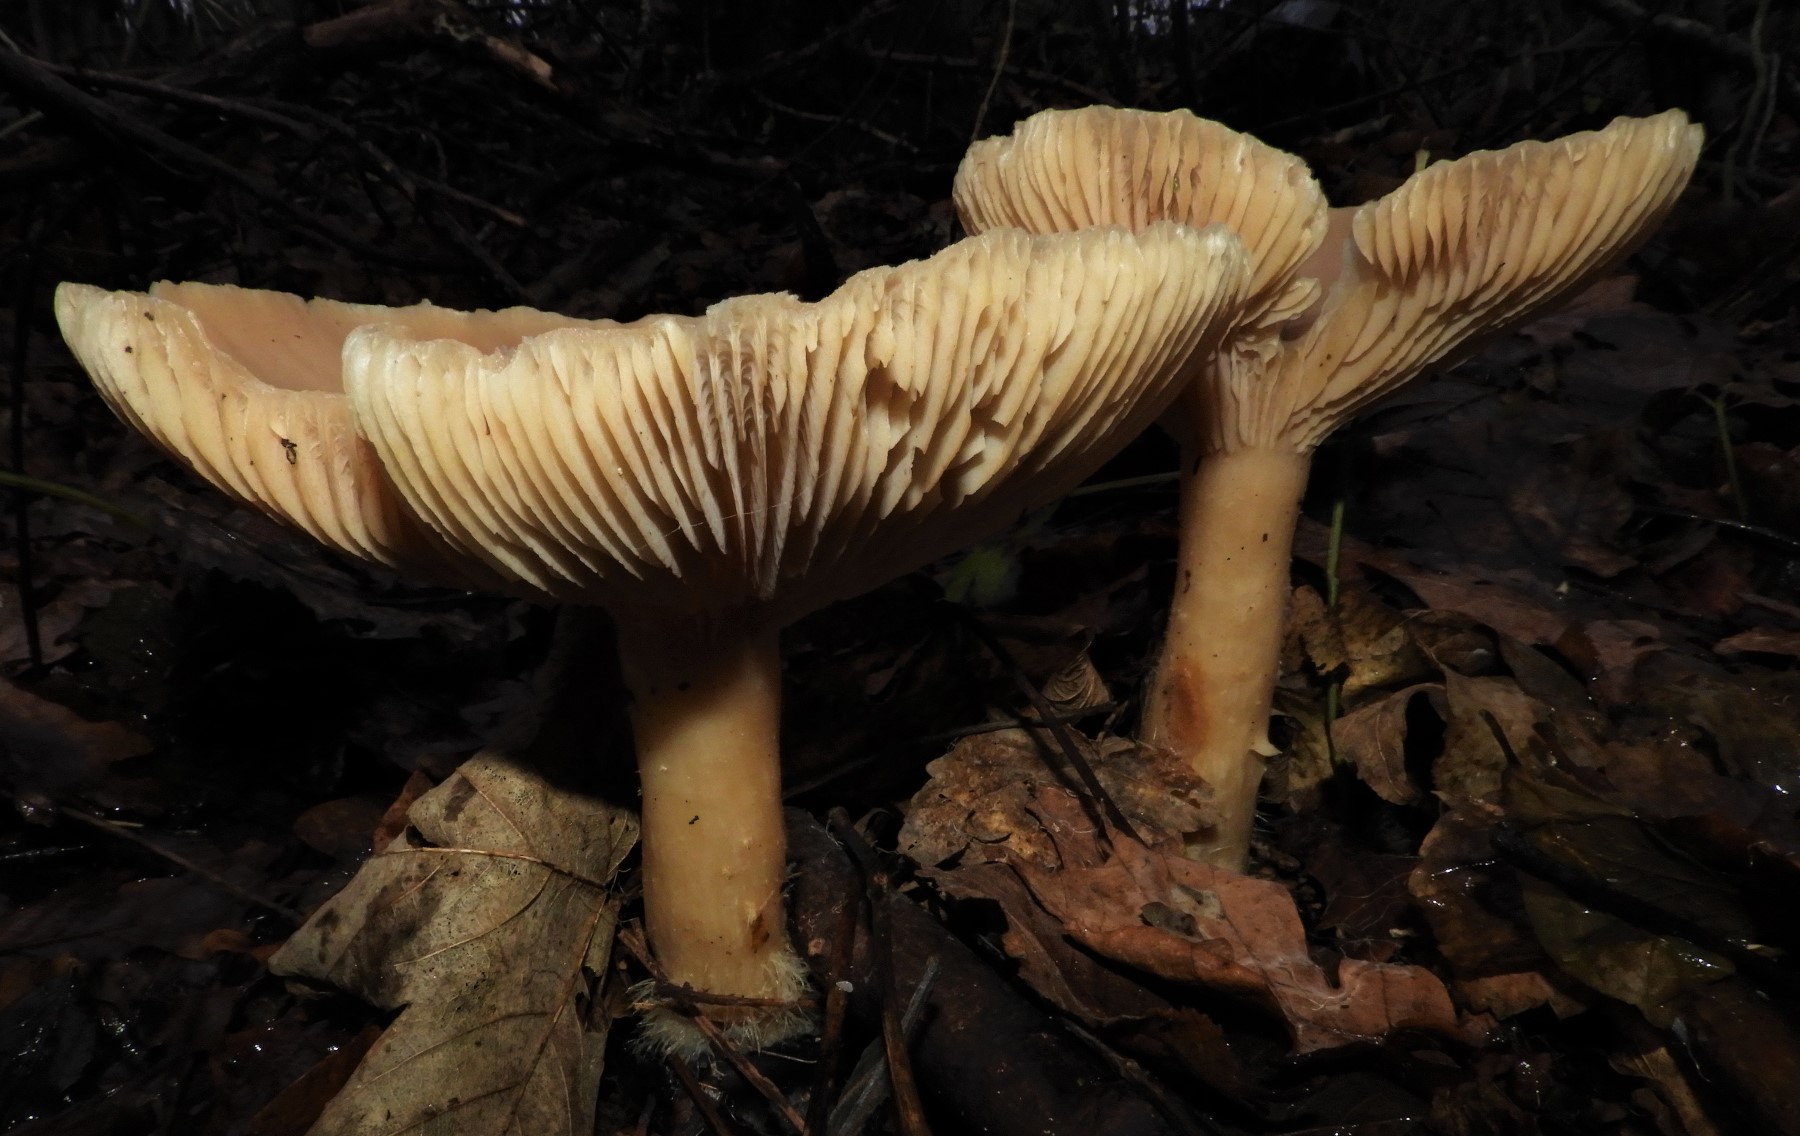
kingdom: Fungi
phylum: Basidiomycota
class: Agaricomycetes
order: Agaricales
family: Tricholomataceae
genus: Infundibulicybe
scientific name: Infundibulicybe geotropa
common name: stor tragthat
